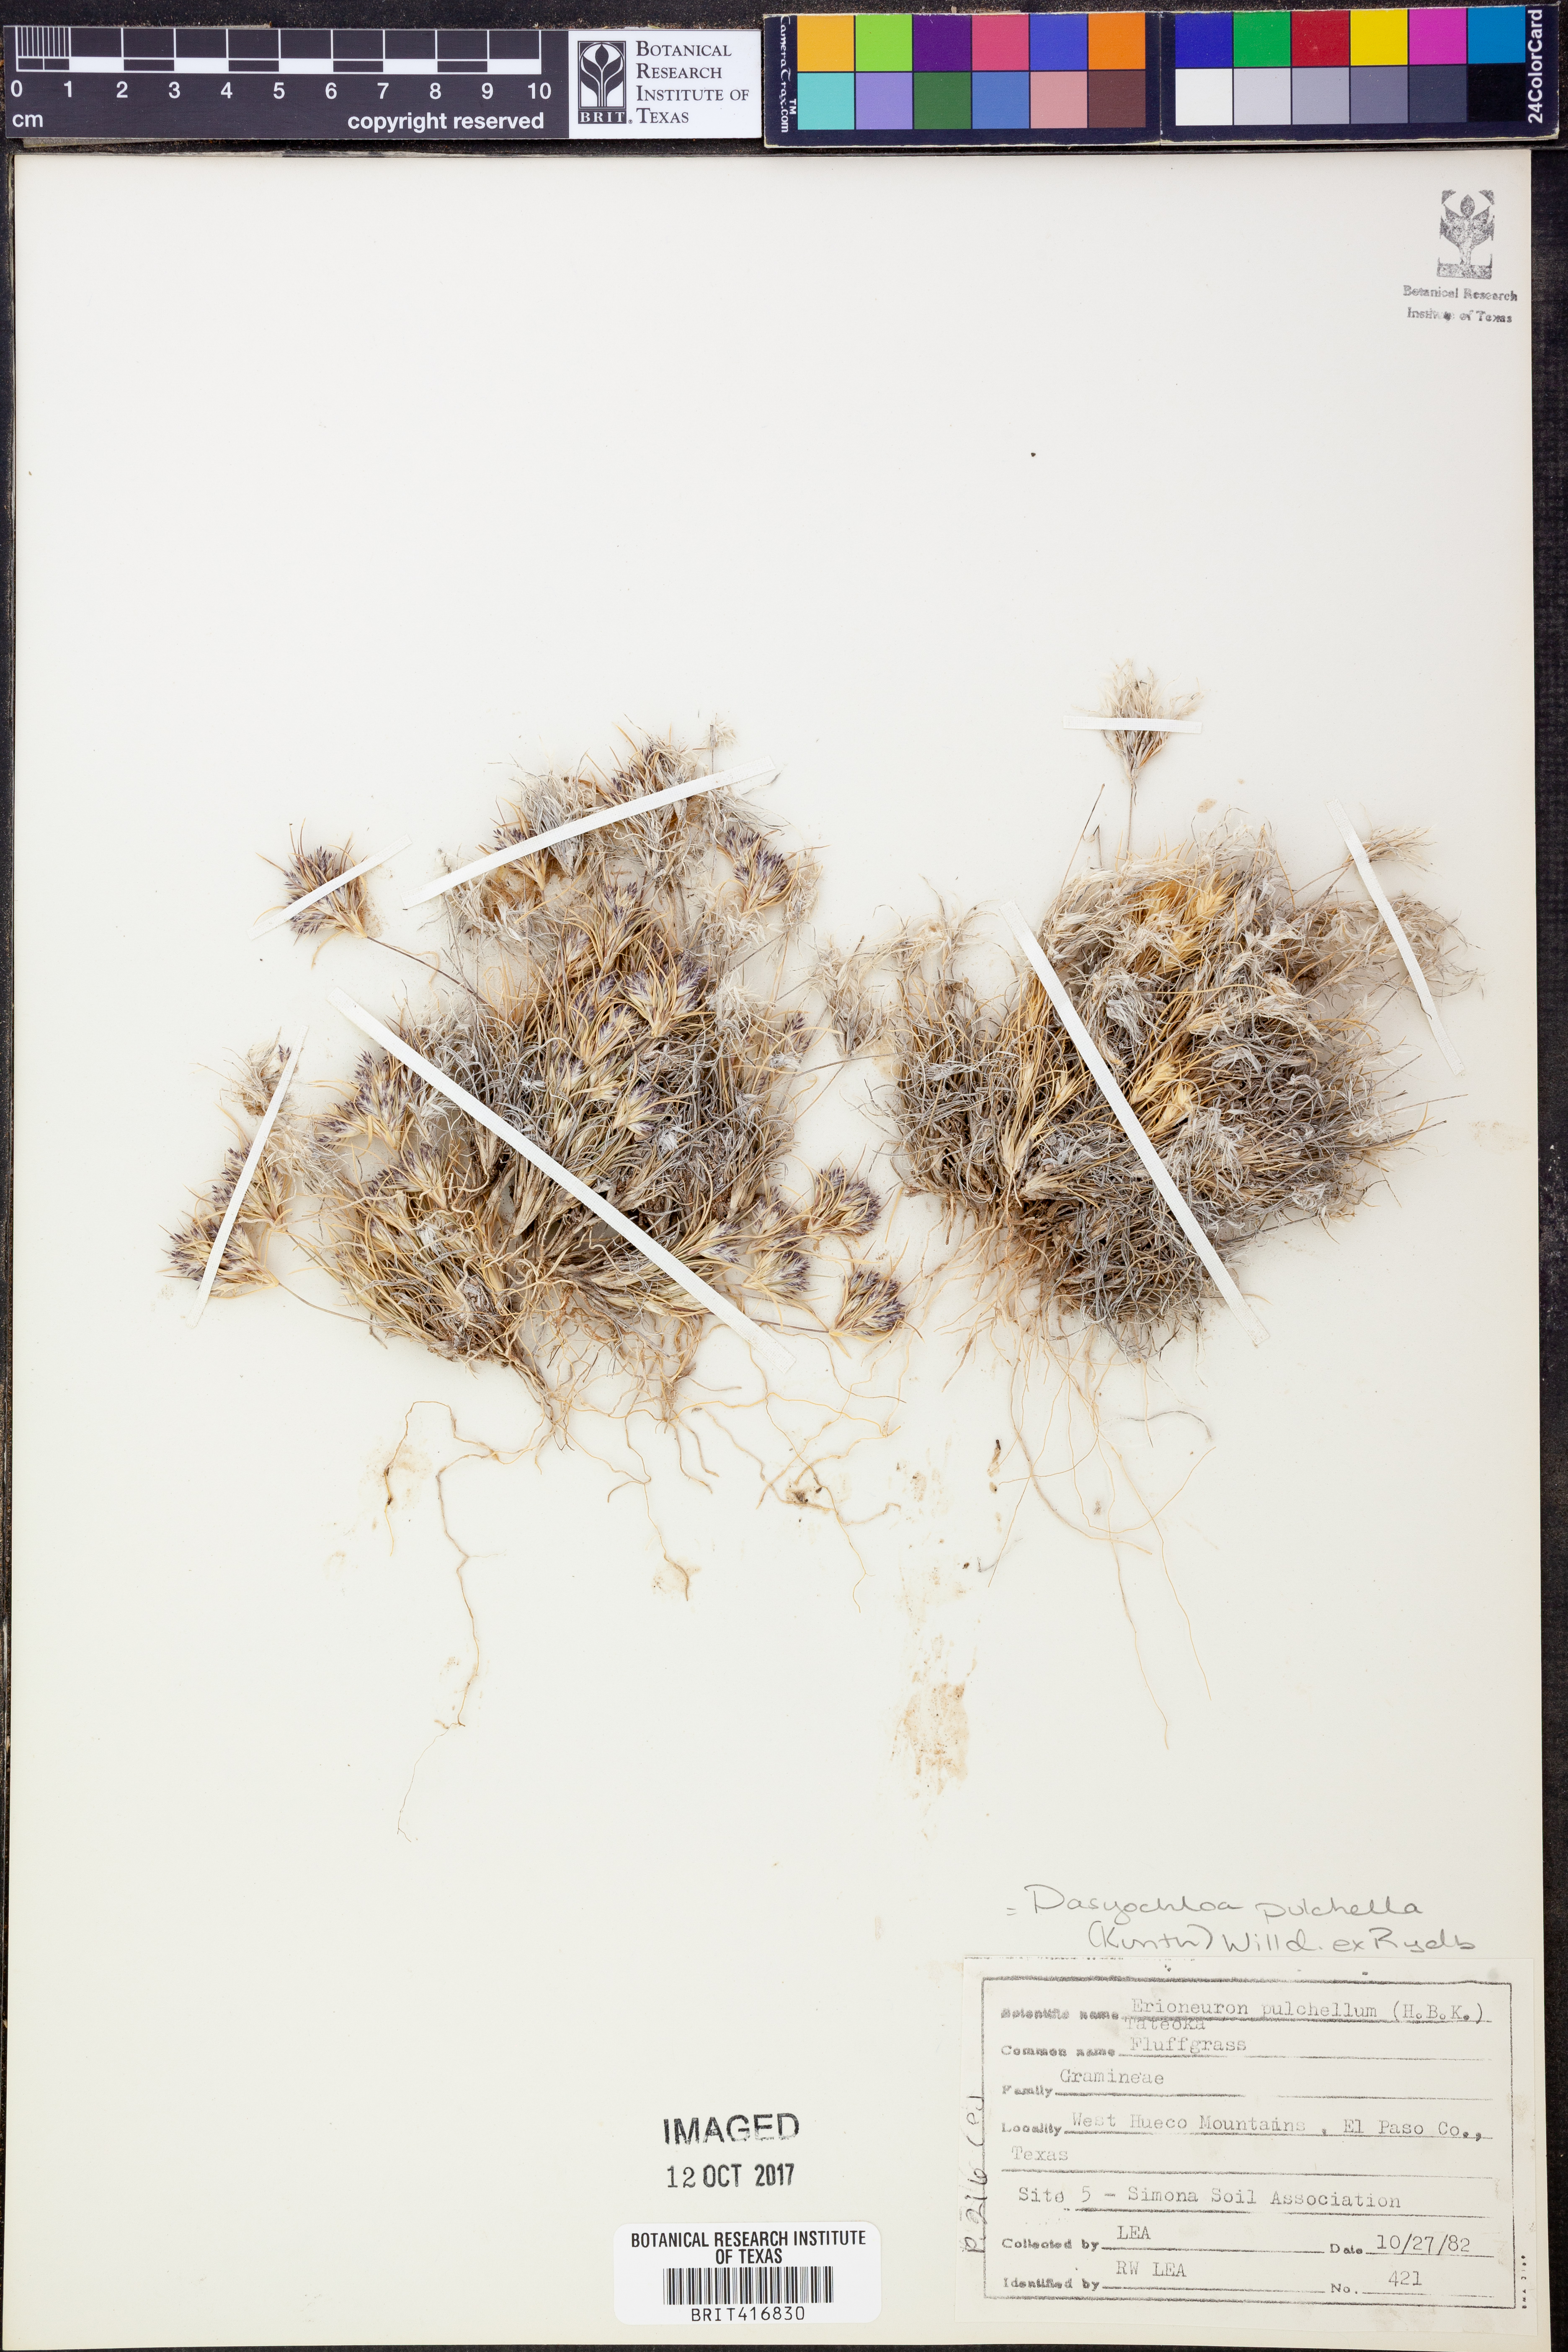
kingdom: Plantae
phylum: Tracheophyta
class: Liliopsida
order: Poales
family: Poaceae
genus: Munroa
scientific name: Munroa pulchella
